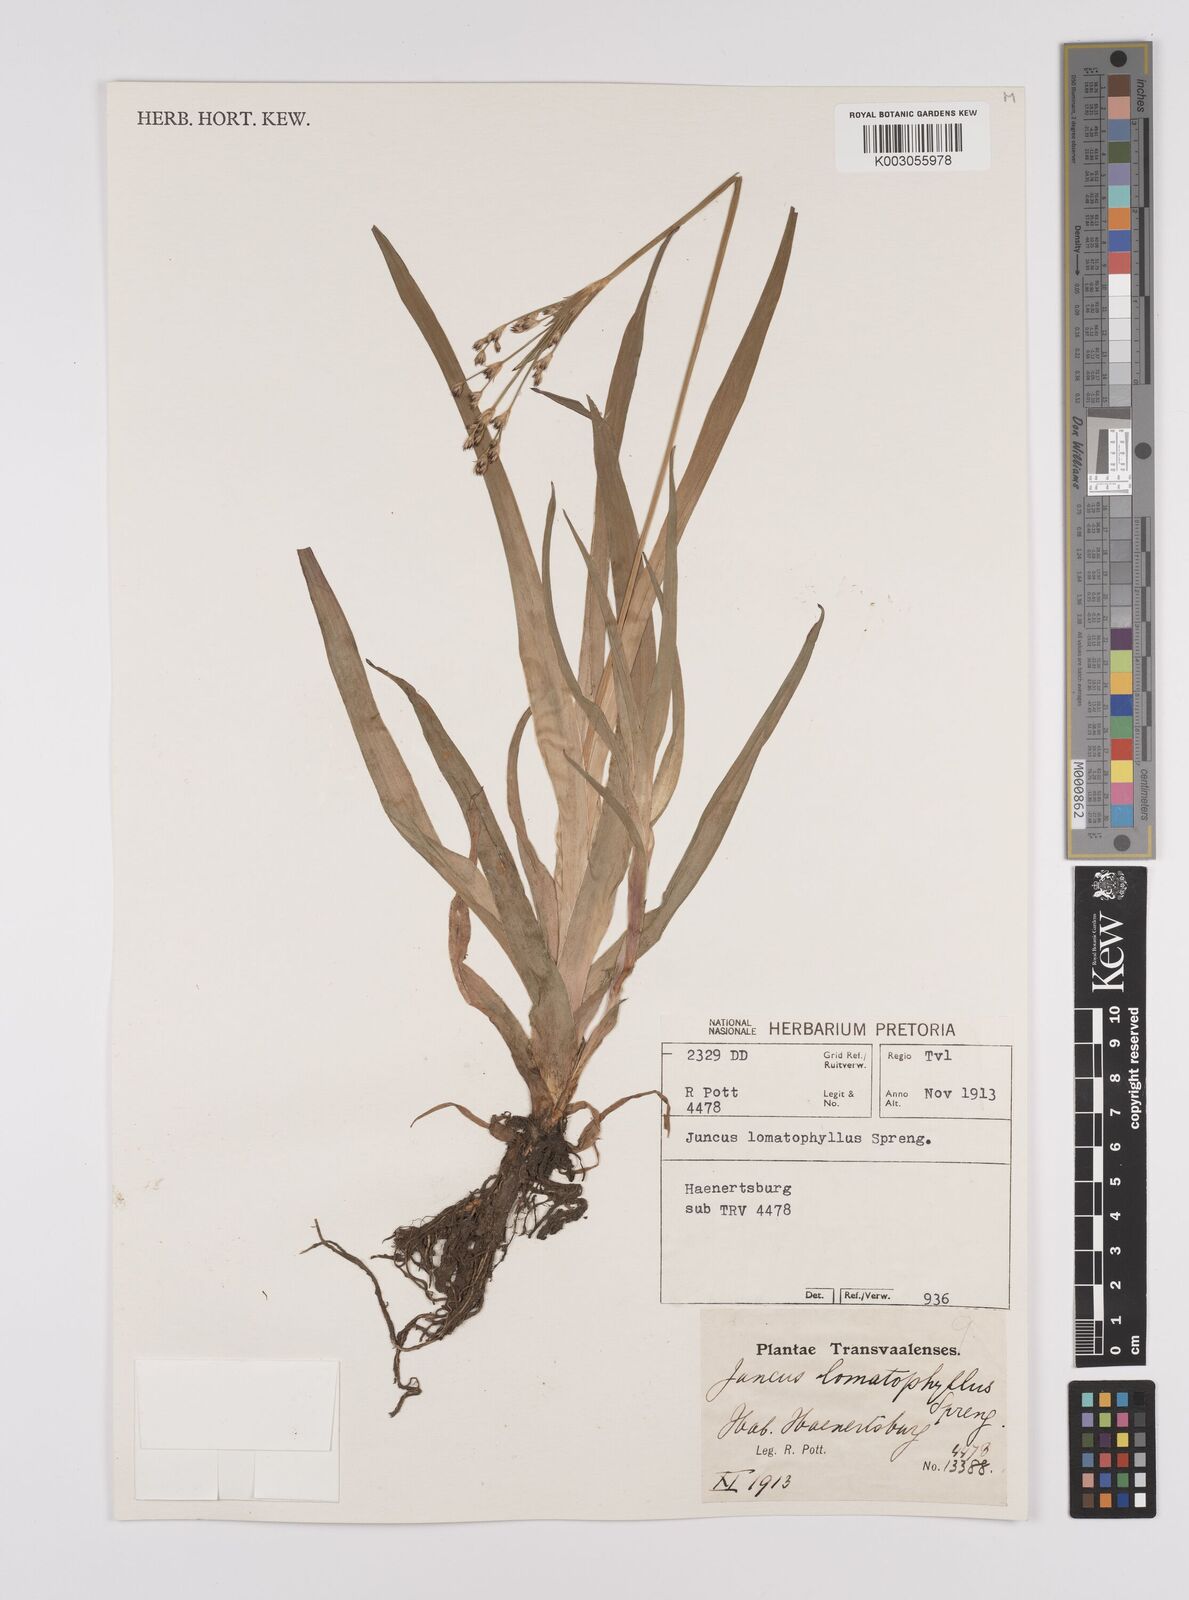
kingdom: Plantae
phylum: Tracheophyta
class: Liliopsida
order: Poales
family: Juncaceae
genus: Juncus
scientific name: Juncus lomatophyllus
